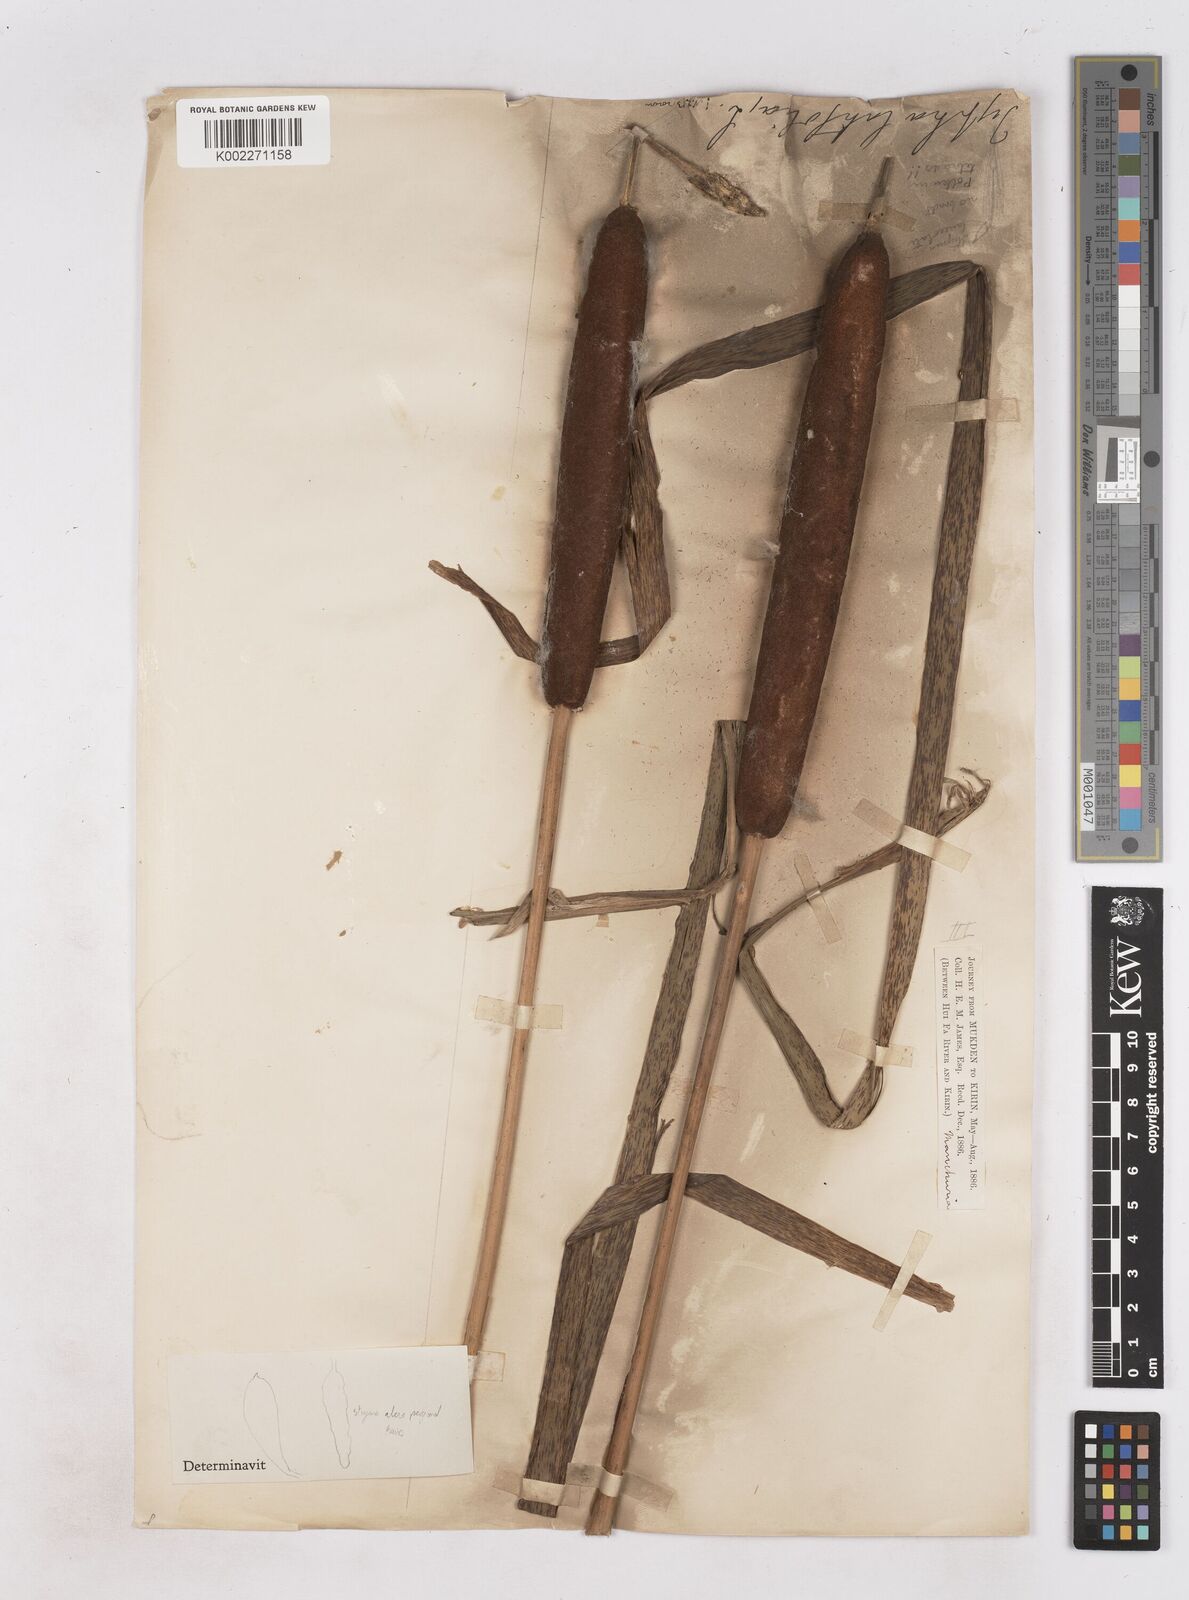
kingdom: Plantae
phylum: Tracheophyta
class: Liliopsida
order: Poales
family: Typhaceae
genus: Typha
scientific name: Typha laxmannii
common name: Laxman’s bulrush
